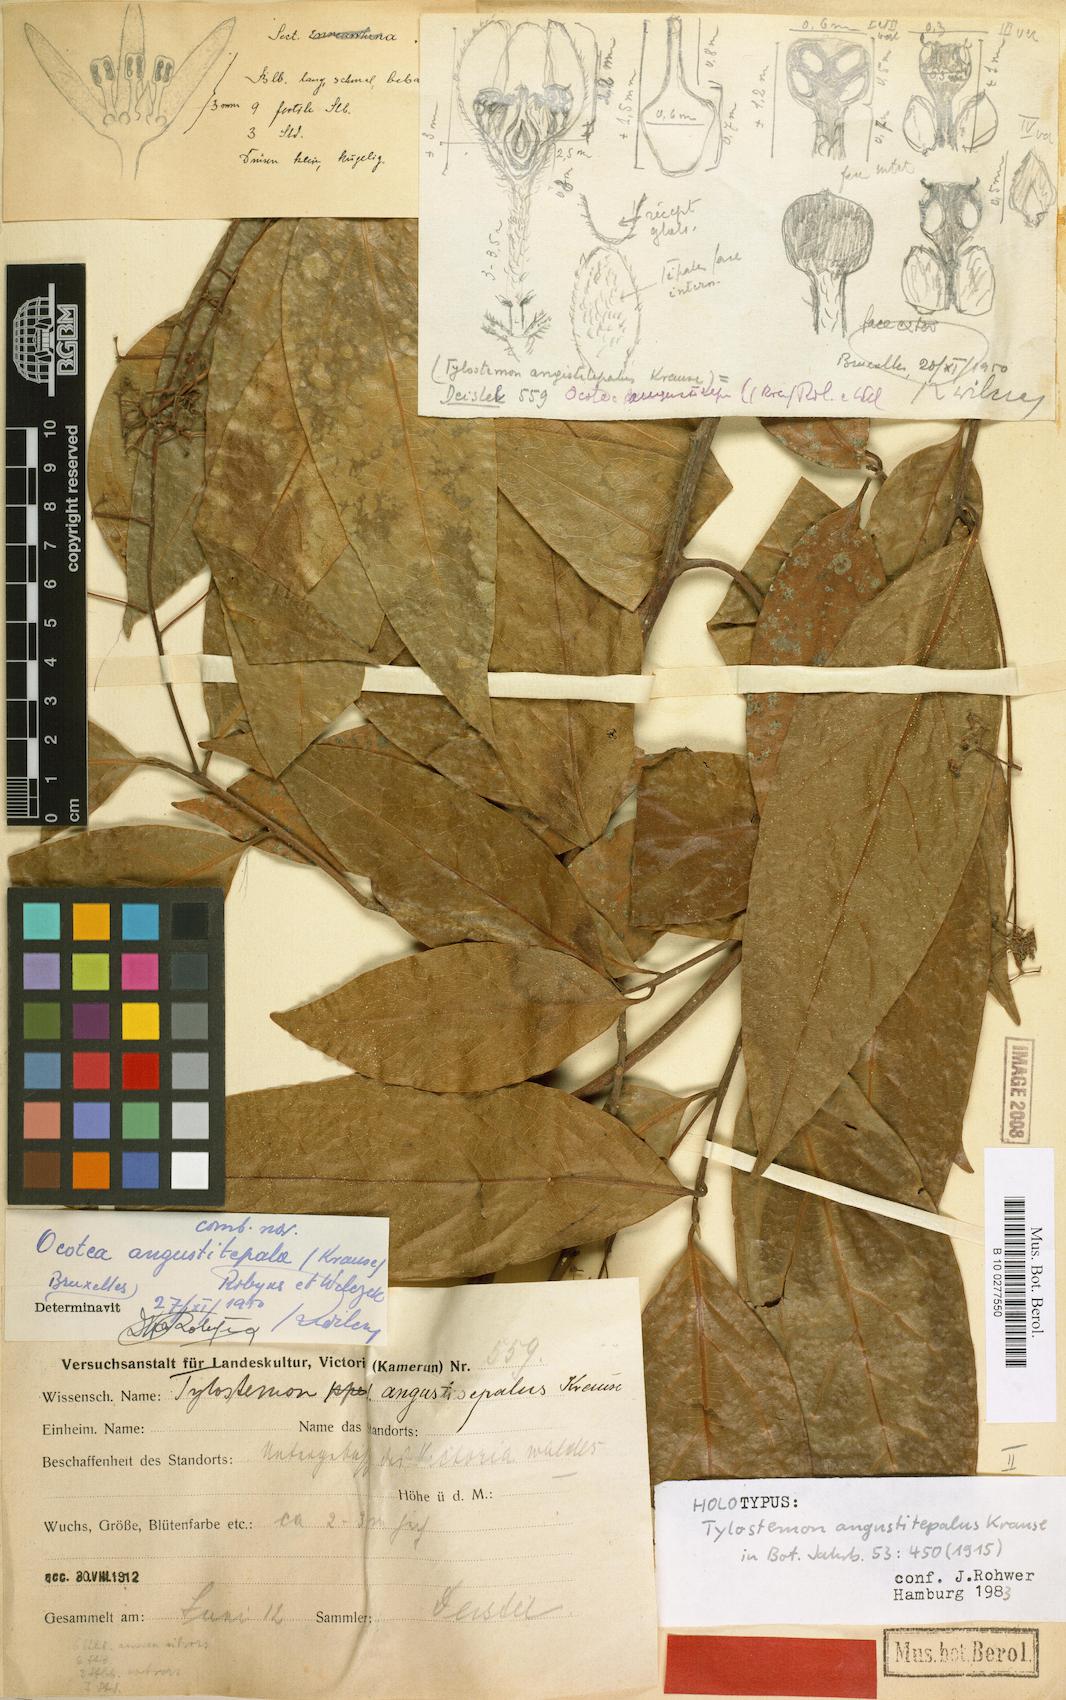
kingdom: Plantae
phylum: Tracheophyta
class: Magnoliopsida
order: Laurales
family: Lauraceae
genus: Damburneya
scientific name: Damburneya patens
